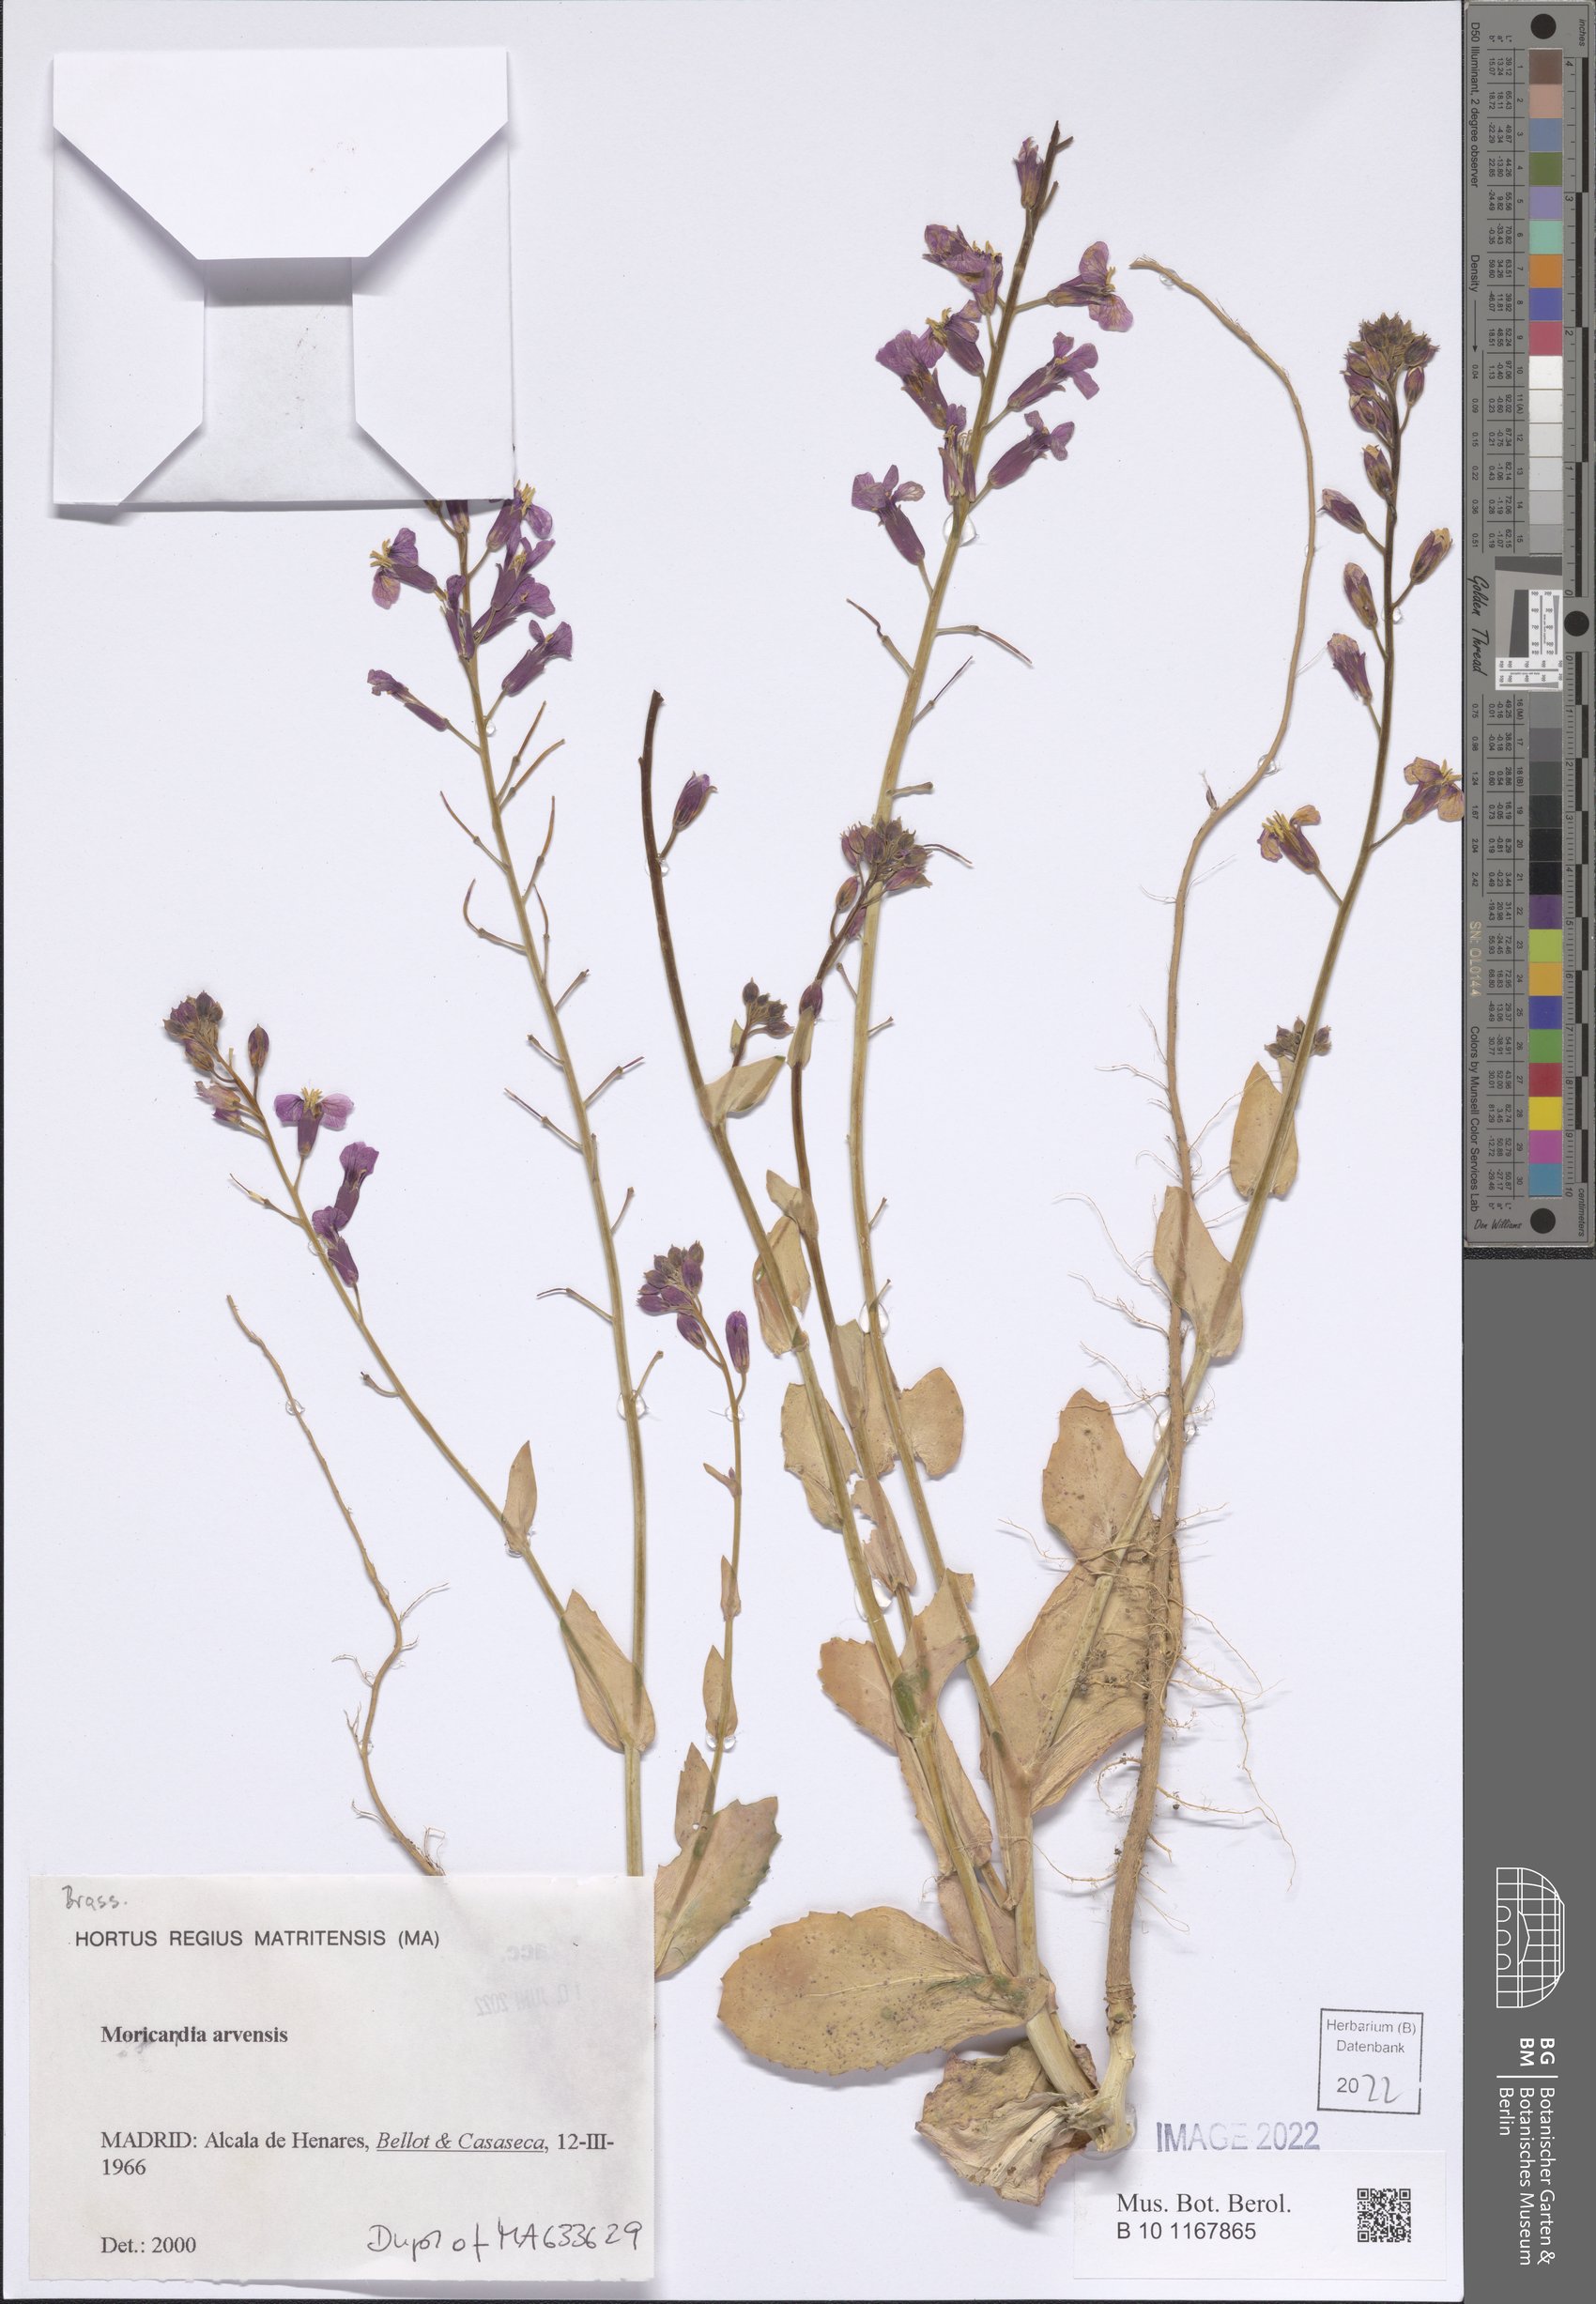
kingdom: Plantae
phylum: Tracheophyta
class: Magnoliopsida
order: Brassicales
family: Brassicaceae
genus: Moricandia
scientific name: Moricandia arvensis
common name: Purple mistress
